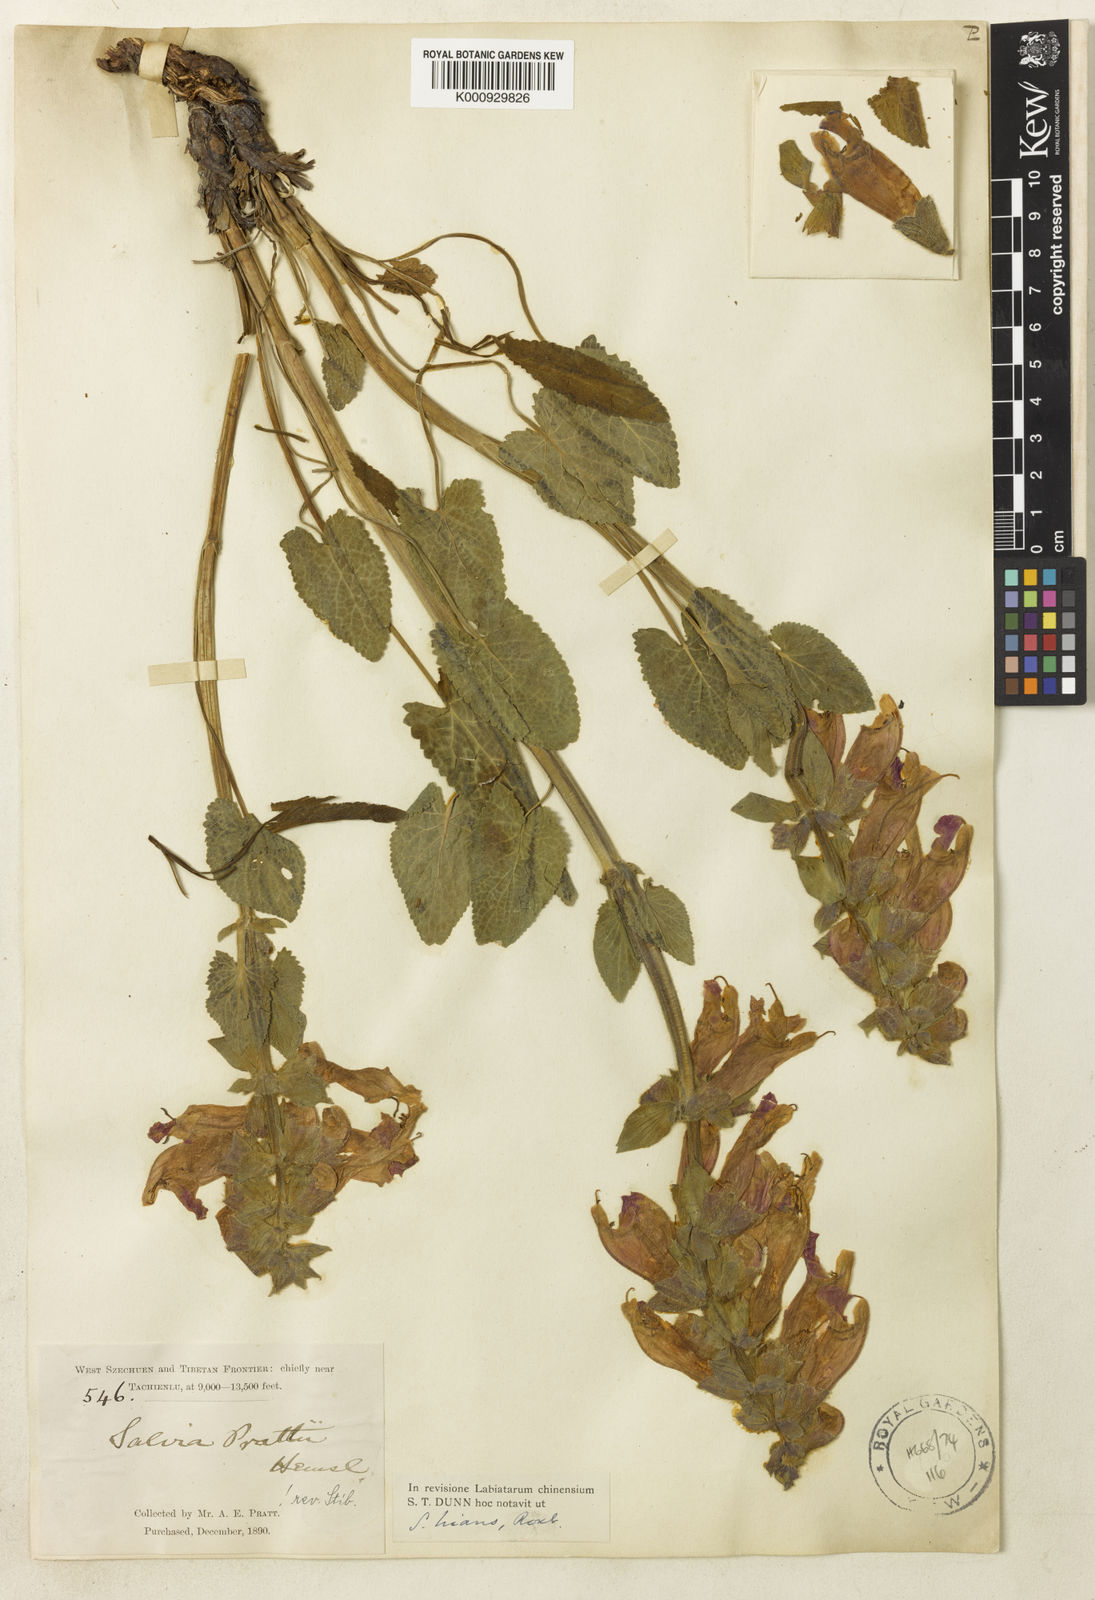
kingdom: Plantae
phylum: Tracheophyta
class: Magnoliopsida
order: Lamiales
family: Lamiaceae
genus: Salvia
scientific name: Salvia prattii
